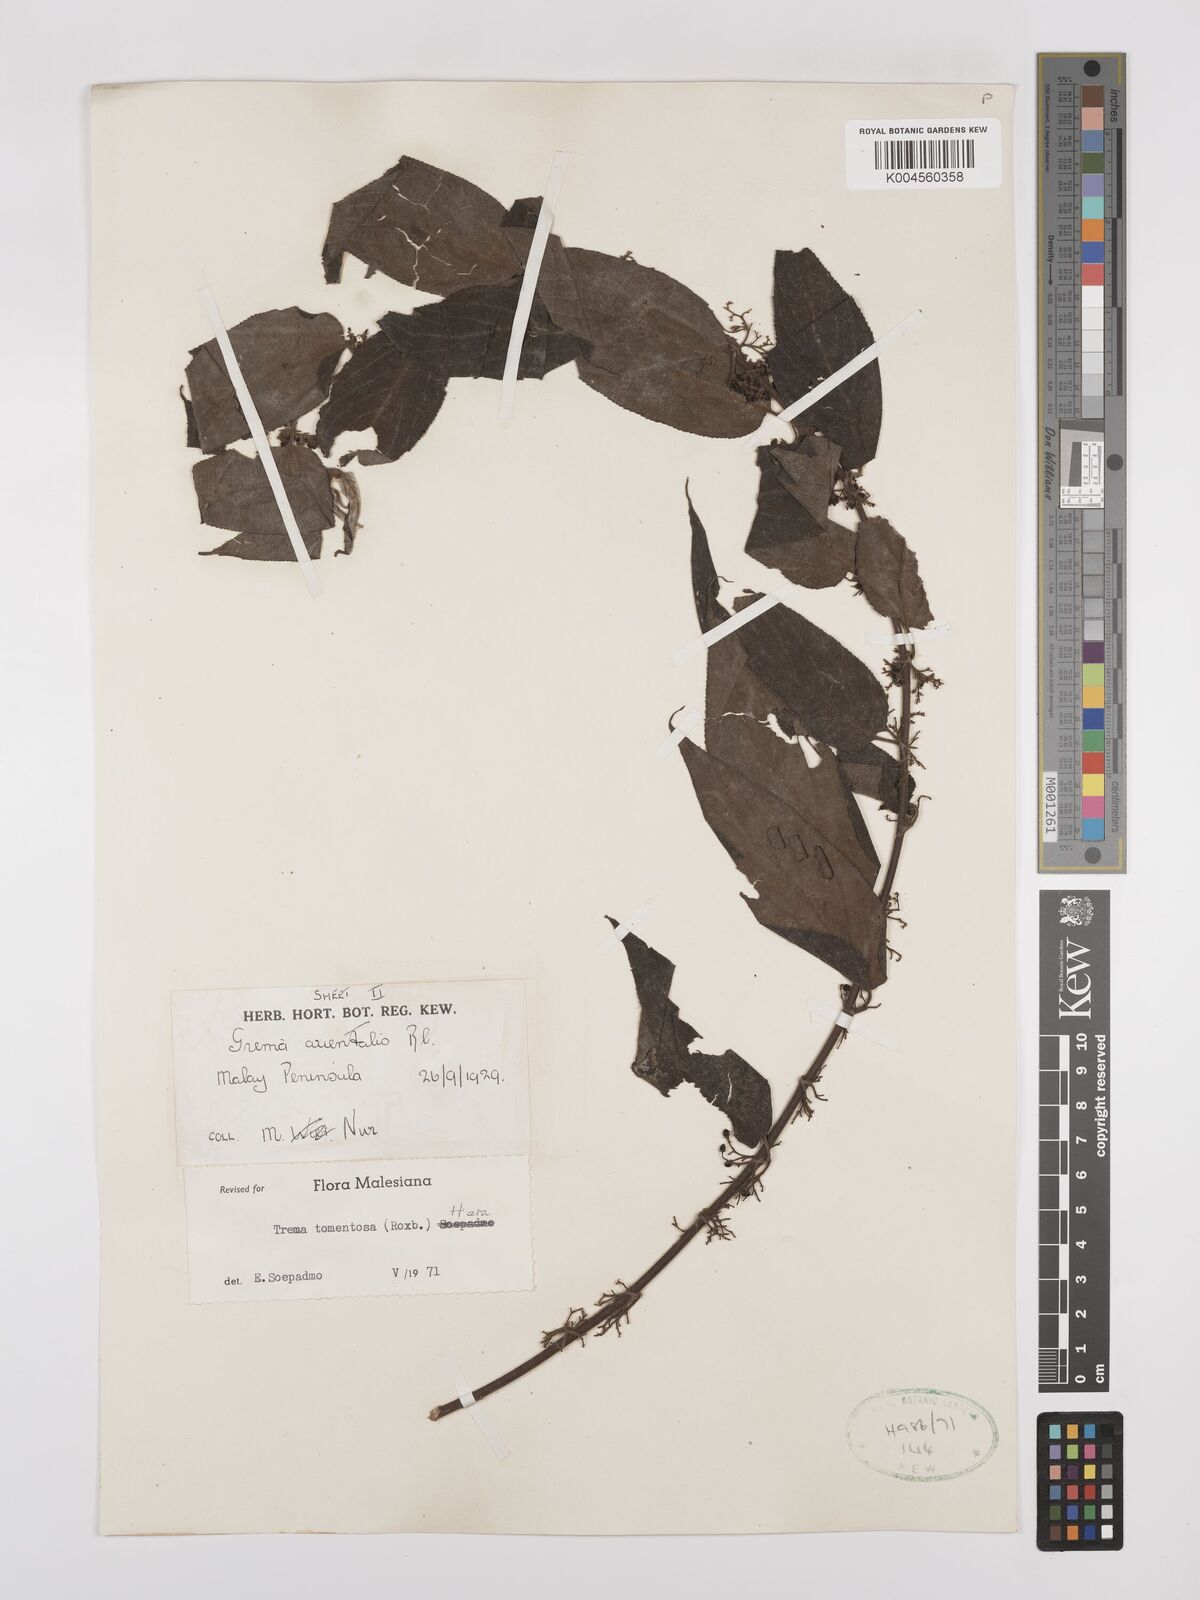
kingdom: Plantae
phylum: Tracheophyta
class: Magnoliopsida
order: Rosales
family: Cannabaceae
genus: Trema
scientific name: Trema tomentosum
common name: Peach-leaf-poisonbush
